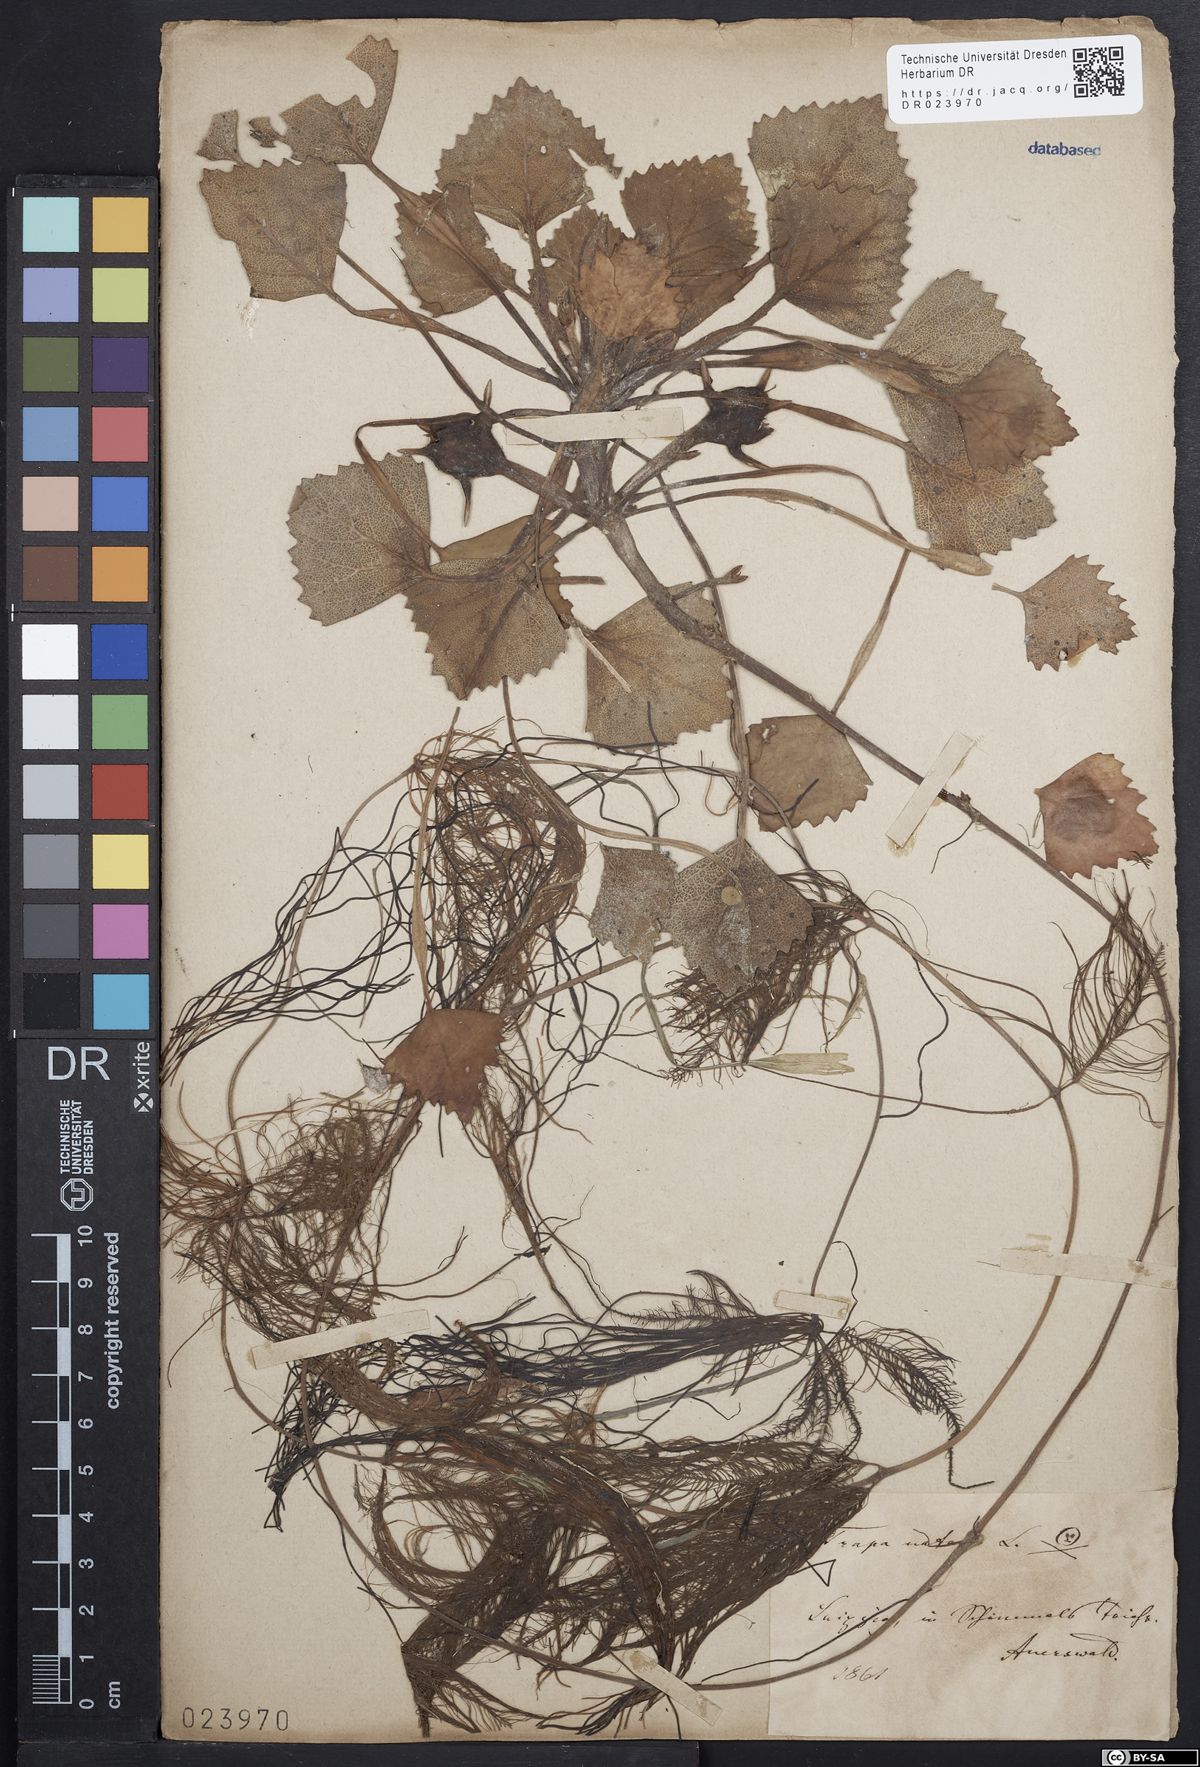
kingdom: Plantae
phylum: Tracheophyta
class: Magnoliopsida
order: Myrtales
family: Lythraceae
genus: Trapa
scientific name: Trapa natans
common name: Water chestnut
